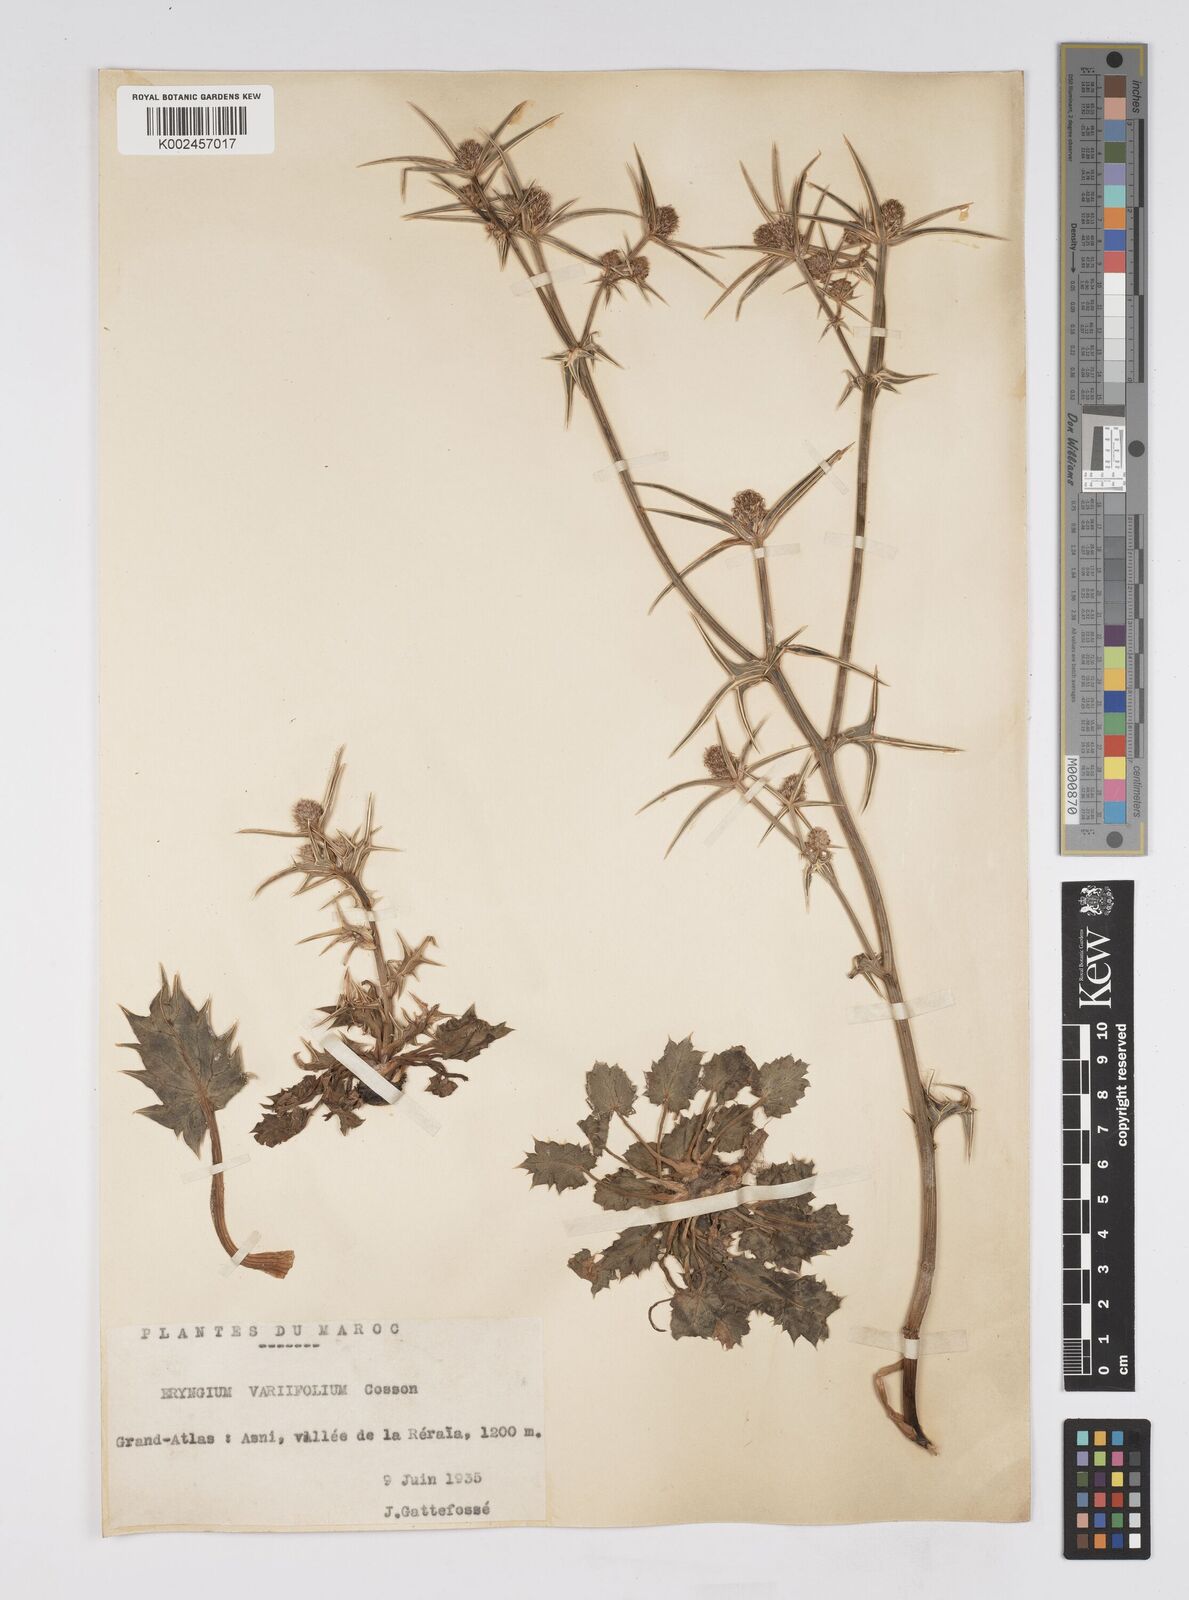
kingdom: Plantae
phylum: Tracheophyta
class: Magnoliopsida
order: Apiales
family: Apiaceae
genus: Eryngium
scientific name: Eryngium variifolium
